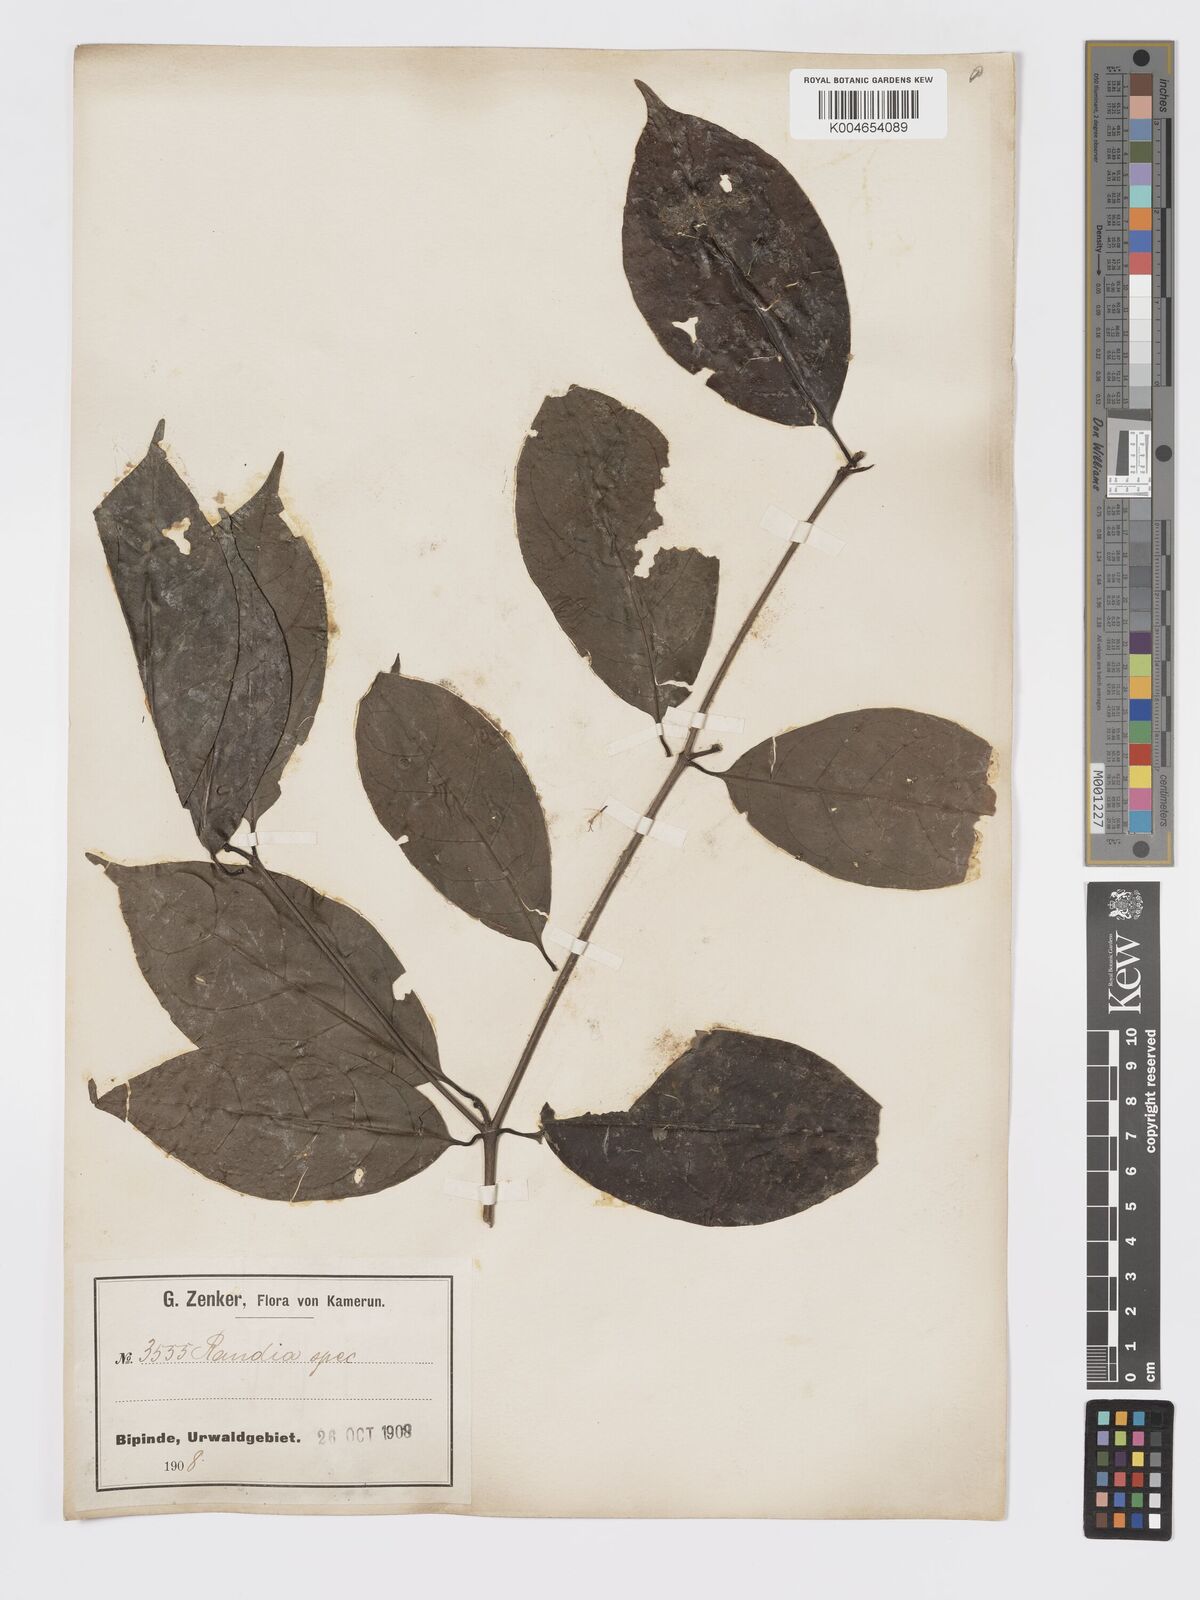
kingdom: Plantae
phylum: Tracheophyta
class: Magnoliopsida
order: Gentianales
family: Rubiaceae
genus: Rothmannia
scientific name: Rothmannia longiflora
